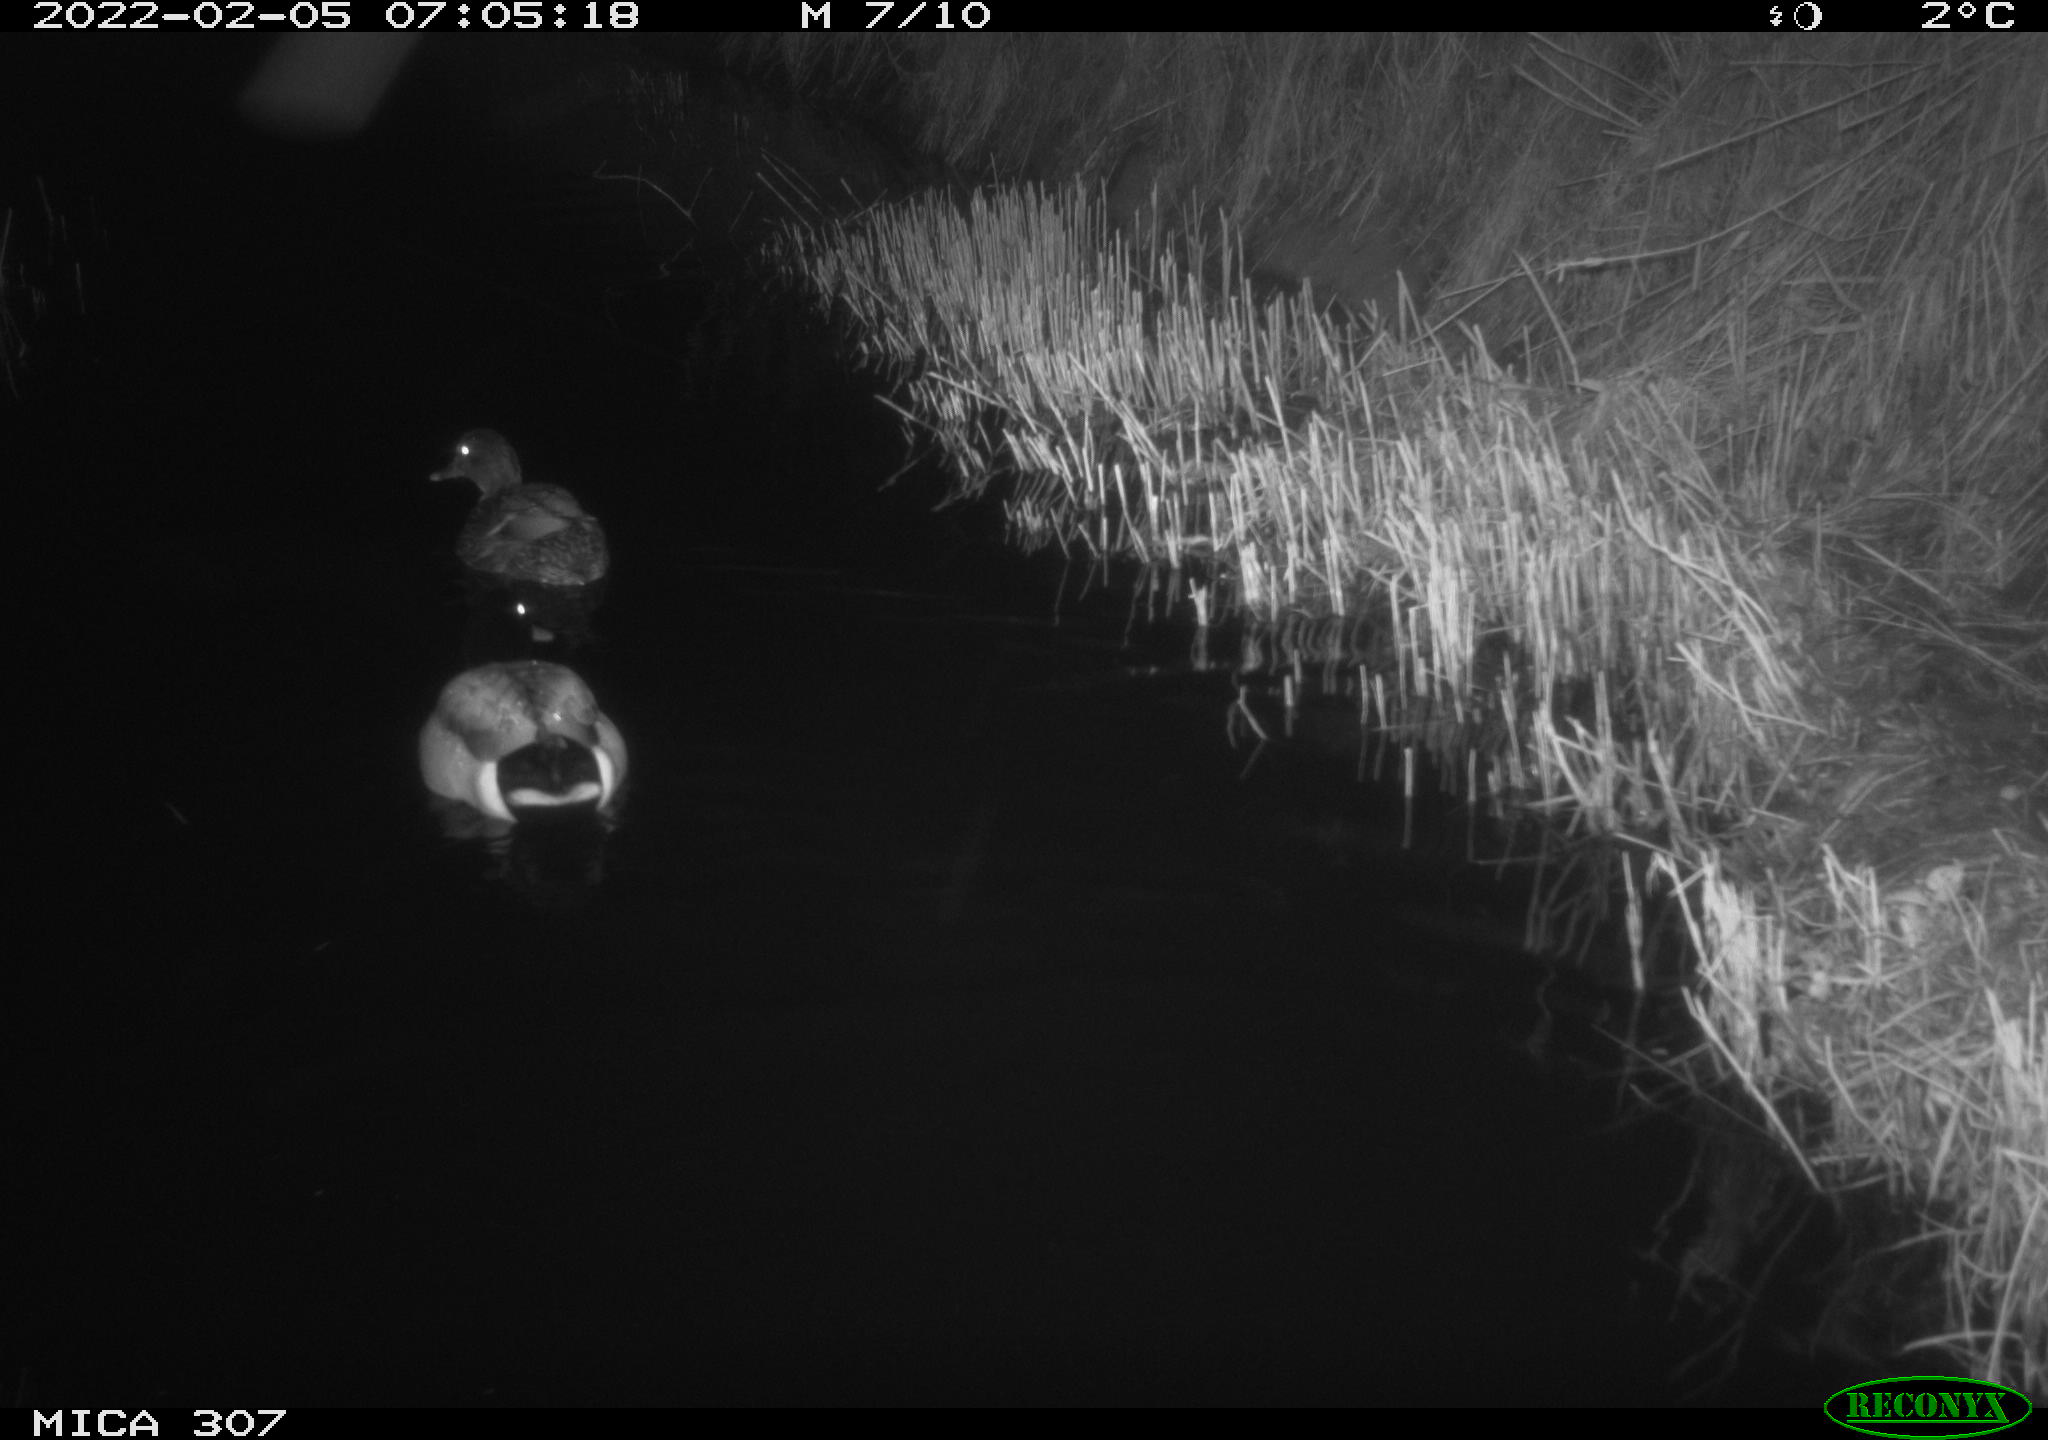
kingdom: Animalia
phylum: Chordata
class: Aves
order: Anseriformes
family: Anatidae
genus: Anas
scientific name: Anas platyrhynchos
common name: Mallard
